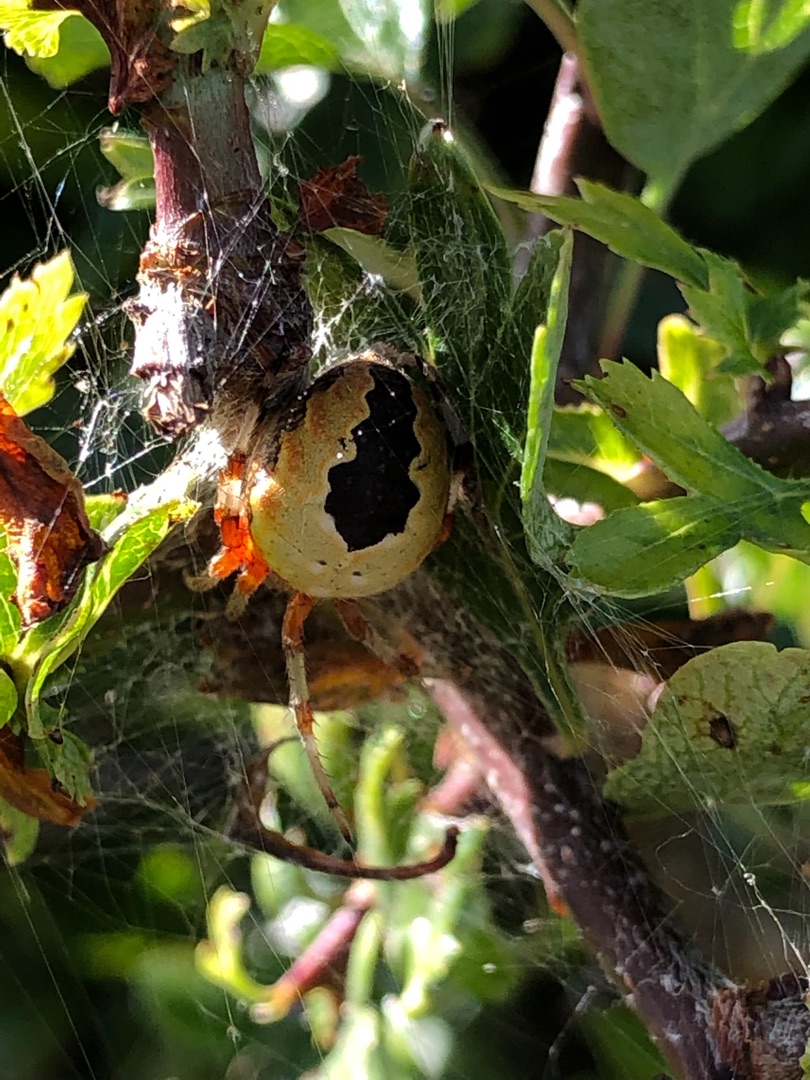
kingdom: Animalia
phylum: Arthropoda
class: Arachnida
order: Araneae
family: Araneidae
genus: Araneus
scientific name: Araneus marmoreus
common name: Marmoreret hjulspinder
